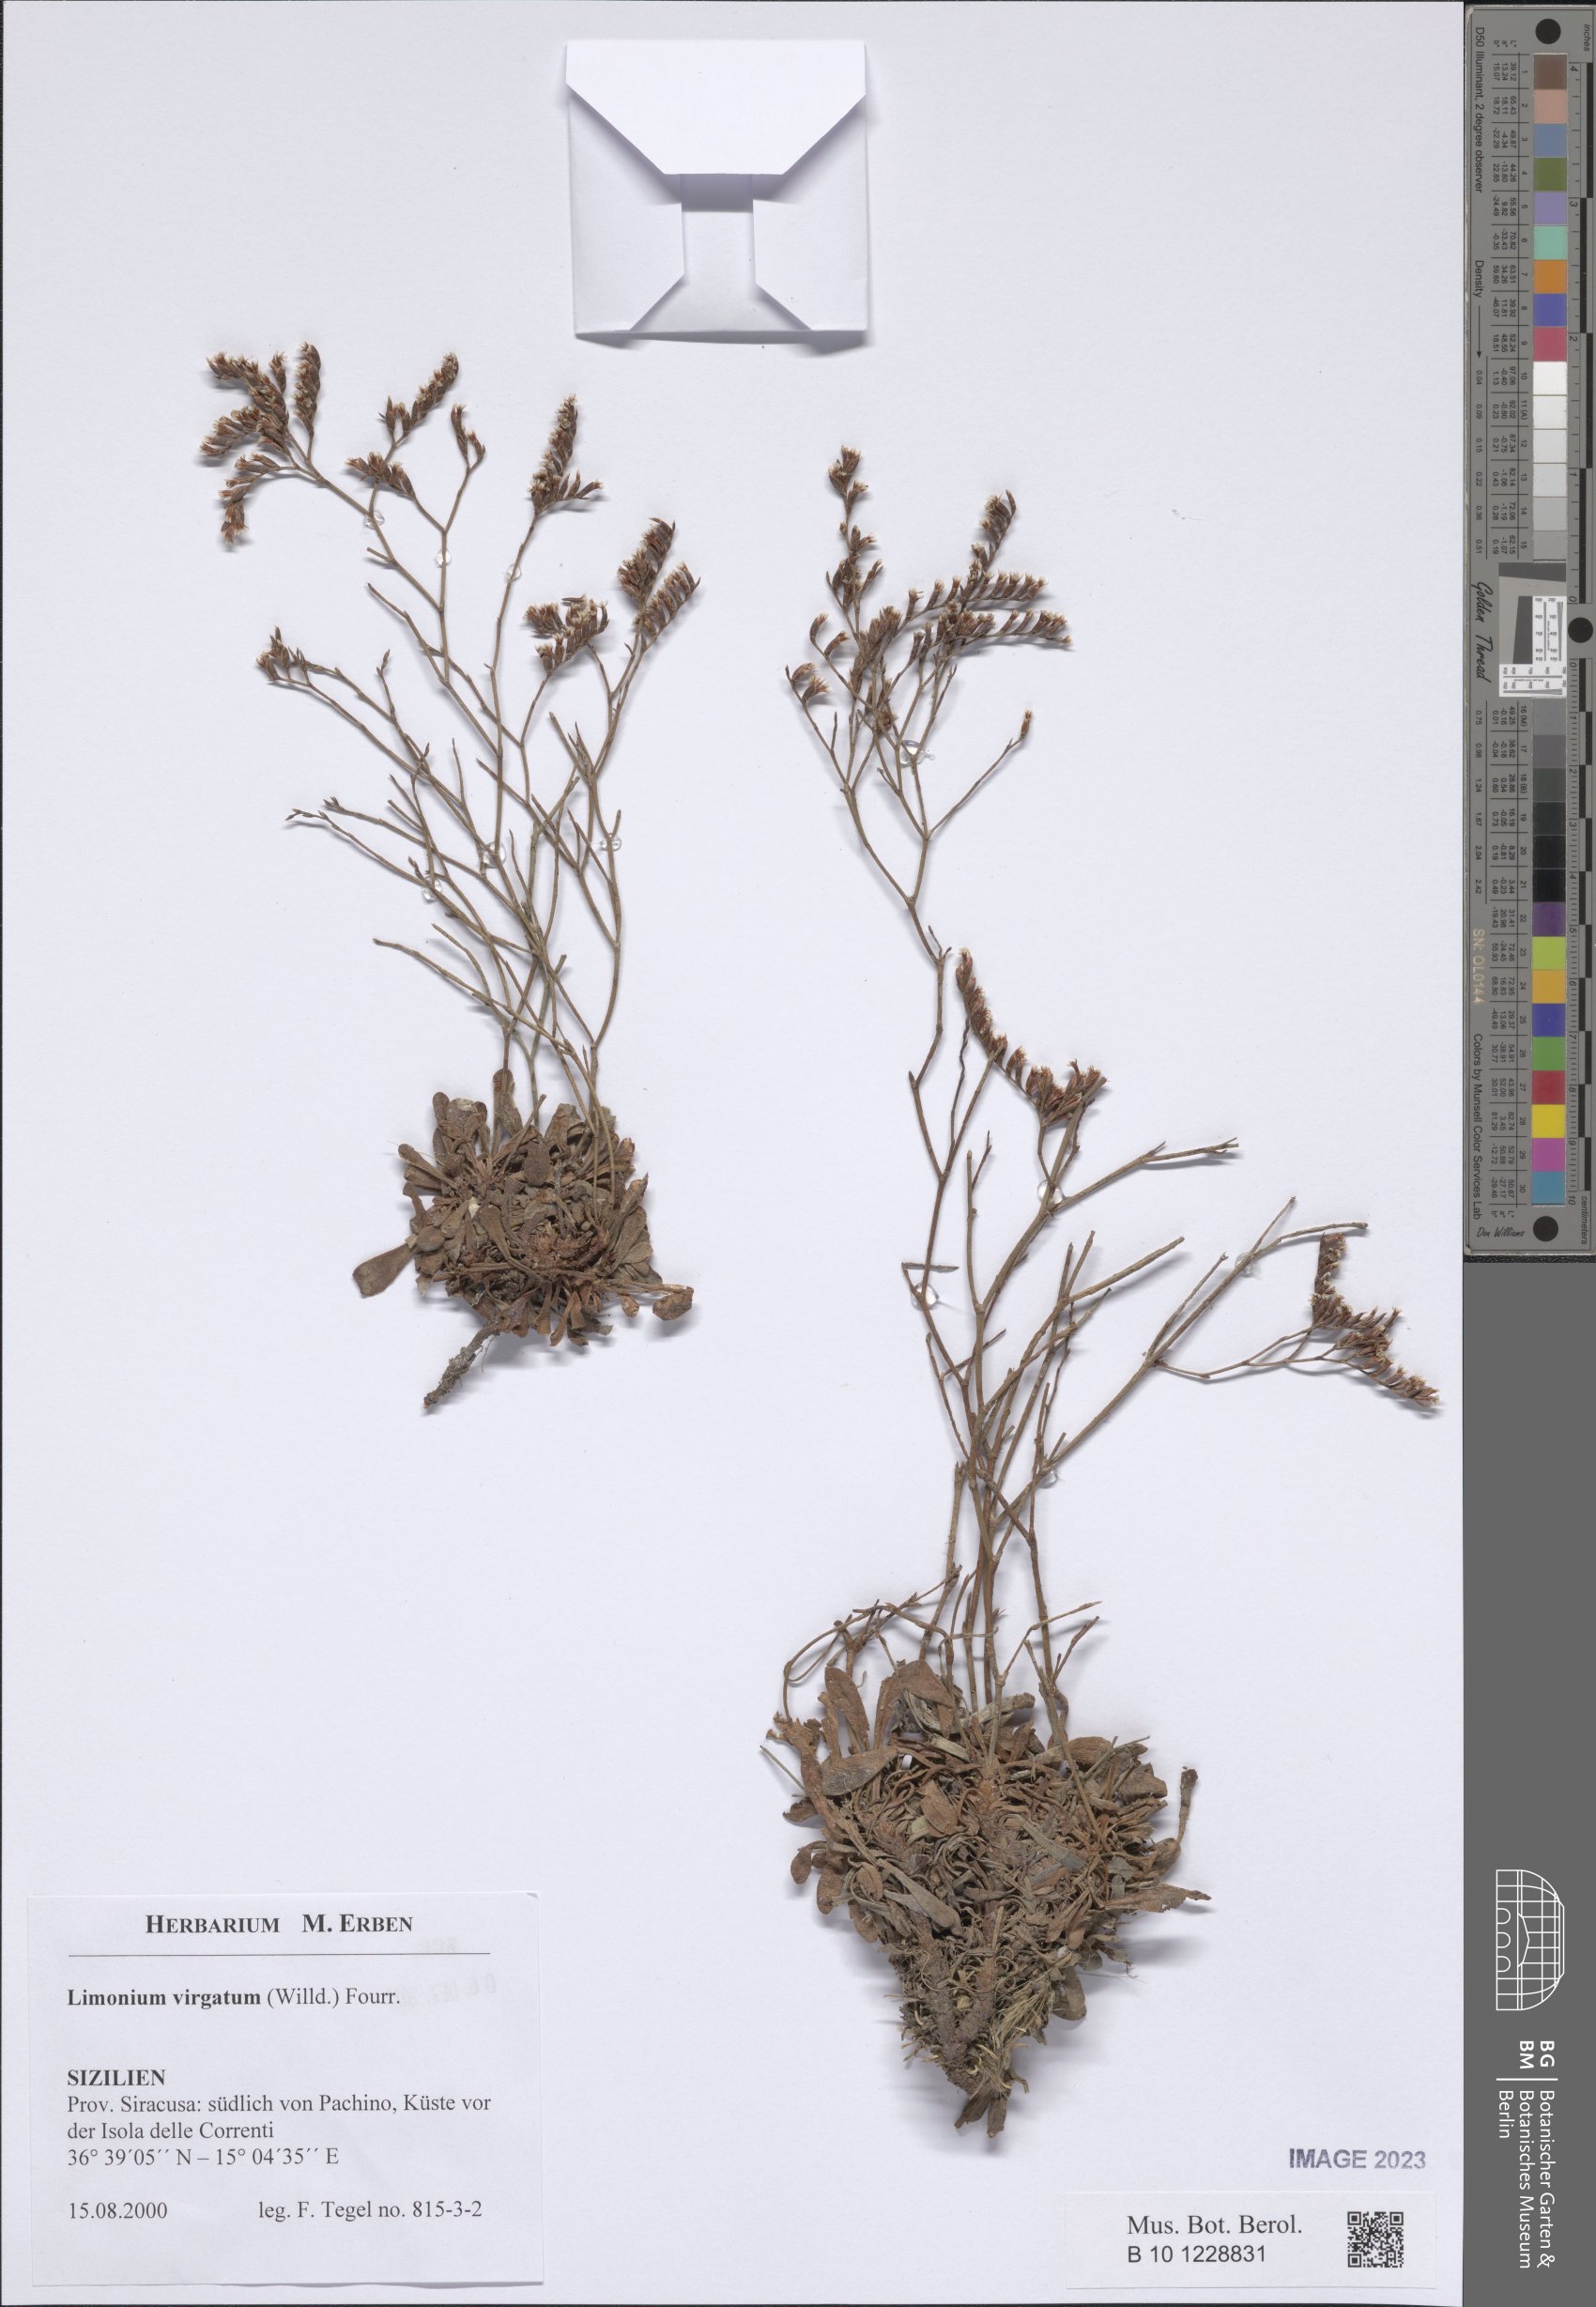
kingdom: Plantae
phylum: Tracheophyta
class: Magnoliopsida
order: Caryophyllales
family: Plumbaginaceae
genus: Limonium
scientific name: Limonium virgatum
